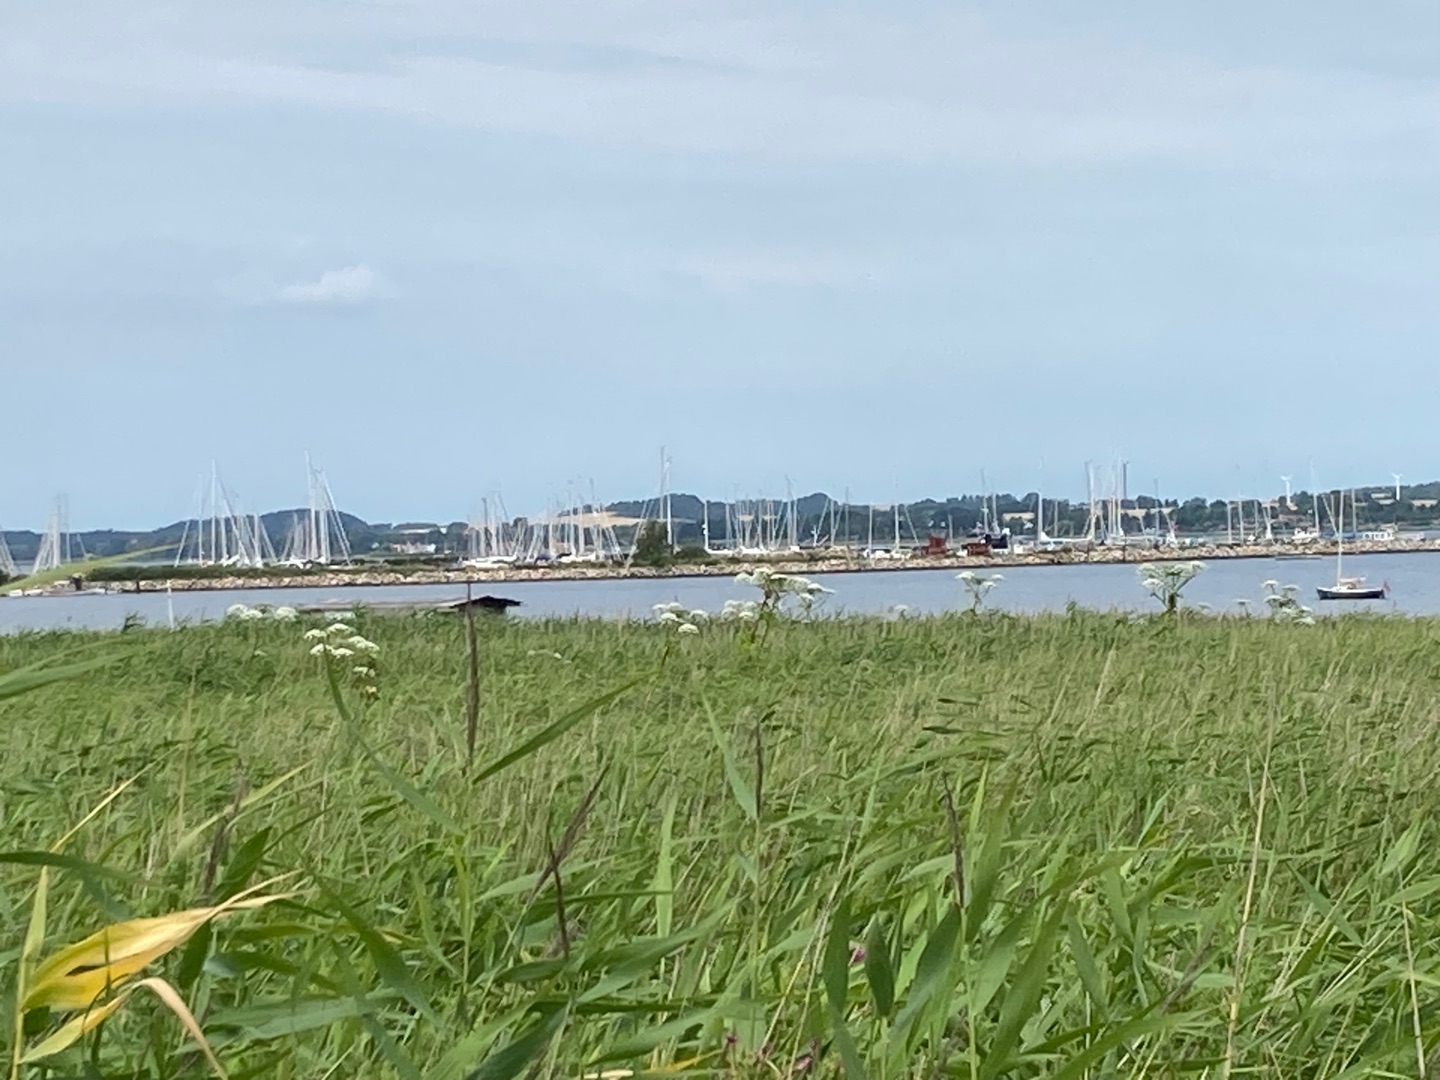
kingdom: Plantae
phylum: Tracheophyta
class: Magnoliopsida
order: Apiales
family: Apiaceae
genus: Heracleum
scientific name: Heracleum mantegazzianum
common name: Kæmpe-bjørneklo
